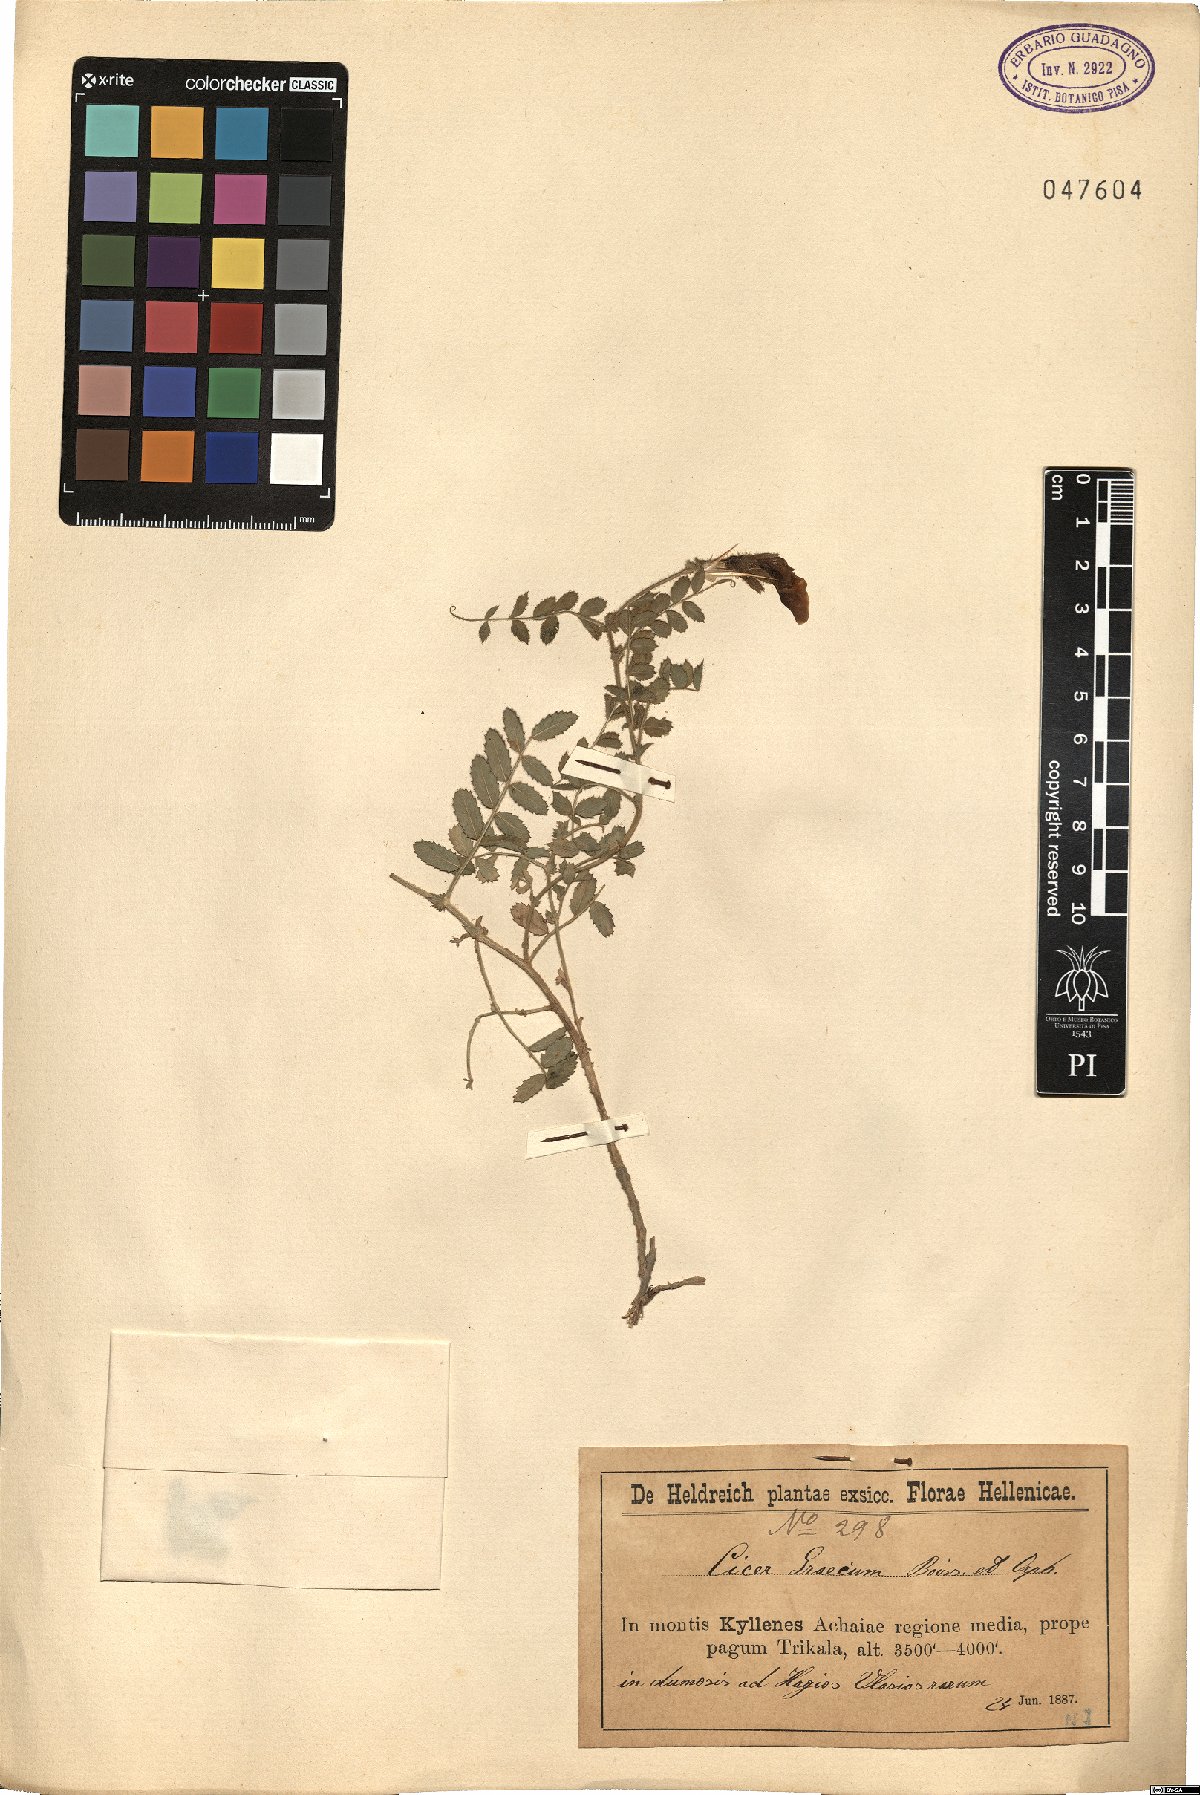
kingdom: Plantae
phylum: Tracheophyta
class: Magnoliopsida
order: Fabales
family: Fabaceae
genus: Cicer
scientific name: Cicer graecum
